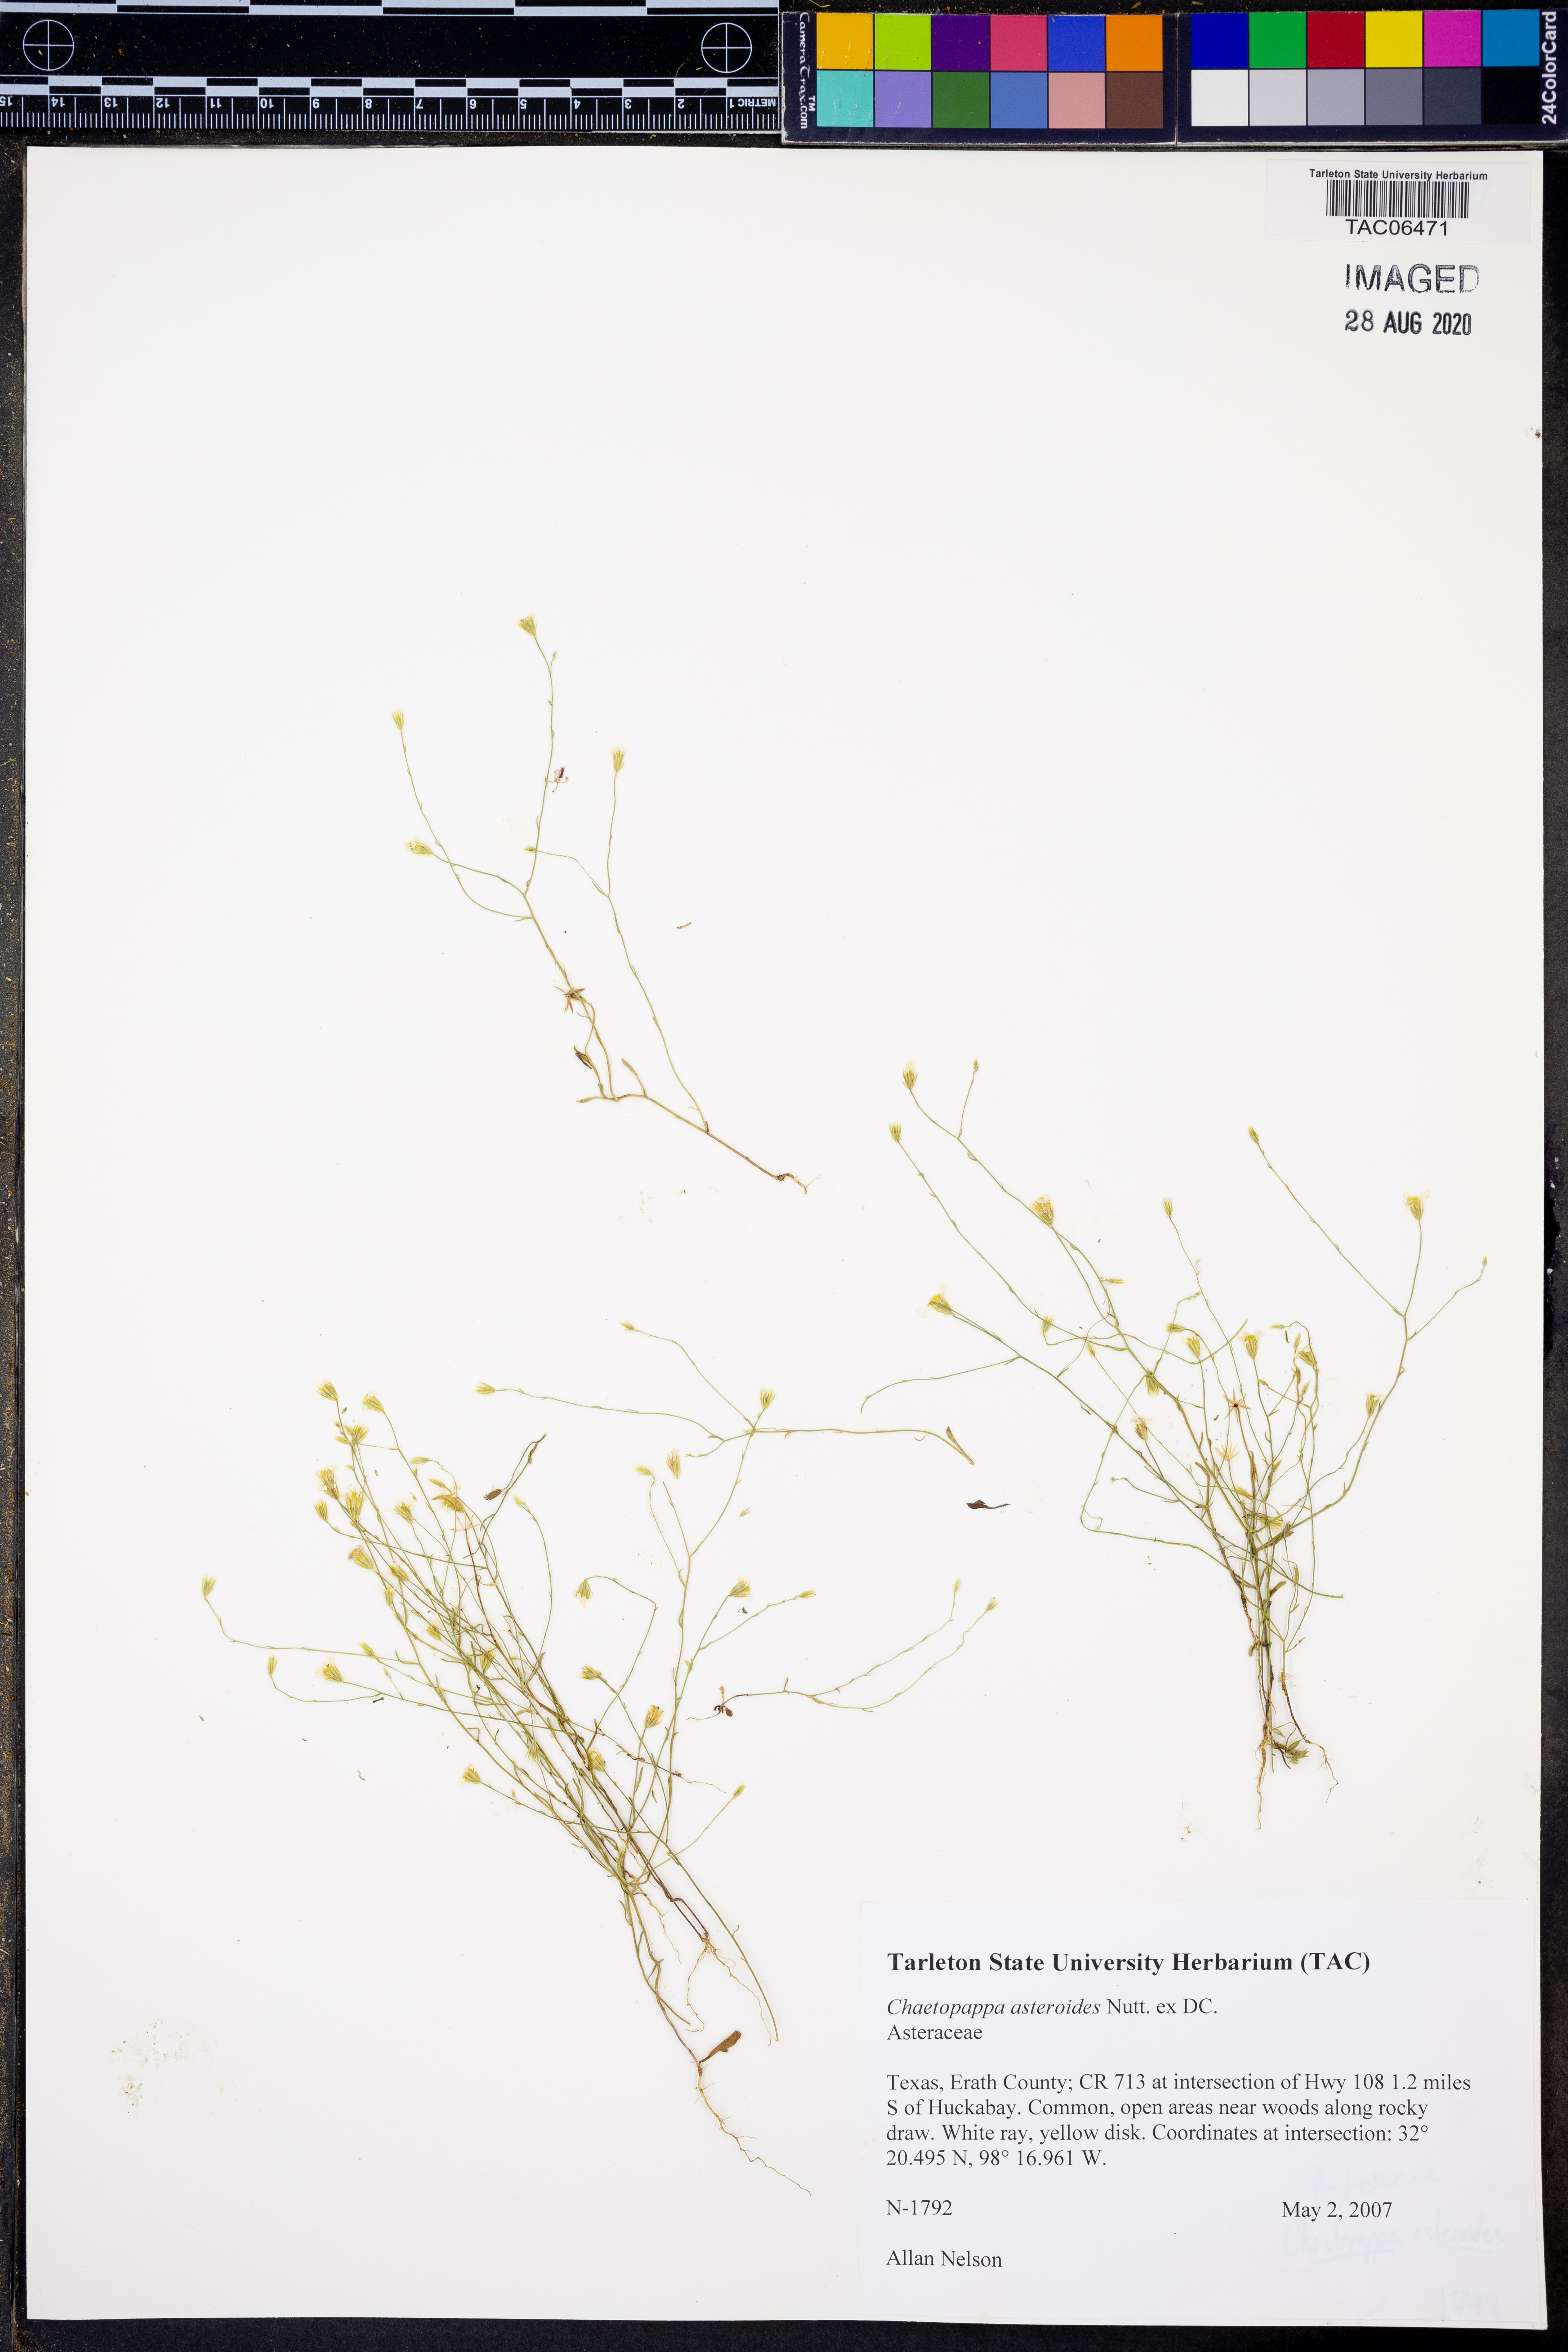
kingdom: Plantae
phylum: Tracheophyta
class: Magnoliopsida
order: Asterales
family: Asteraceae
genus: Chaetopappa
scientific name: Chaetopappa asteroides
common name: Tiny lazy daisy
